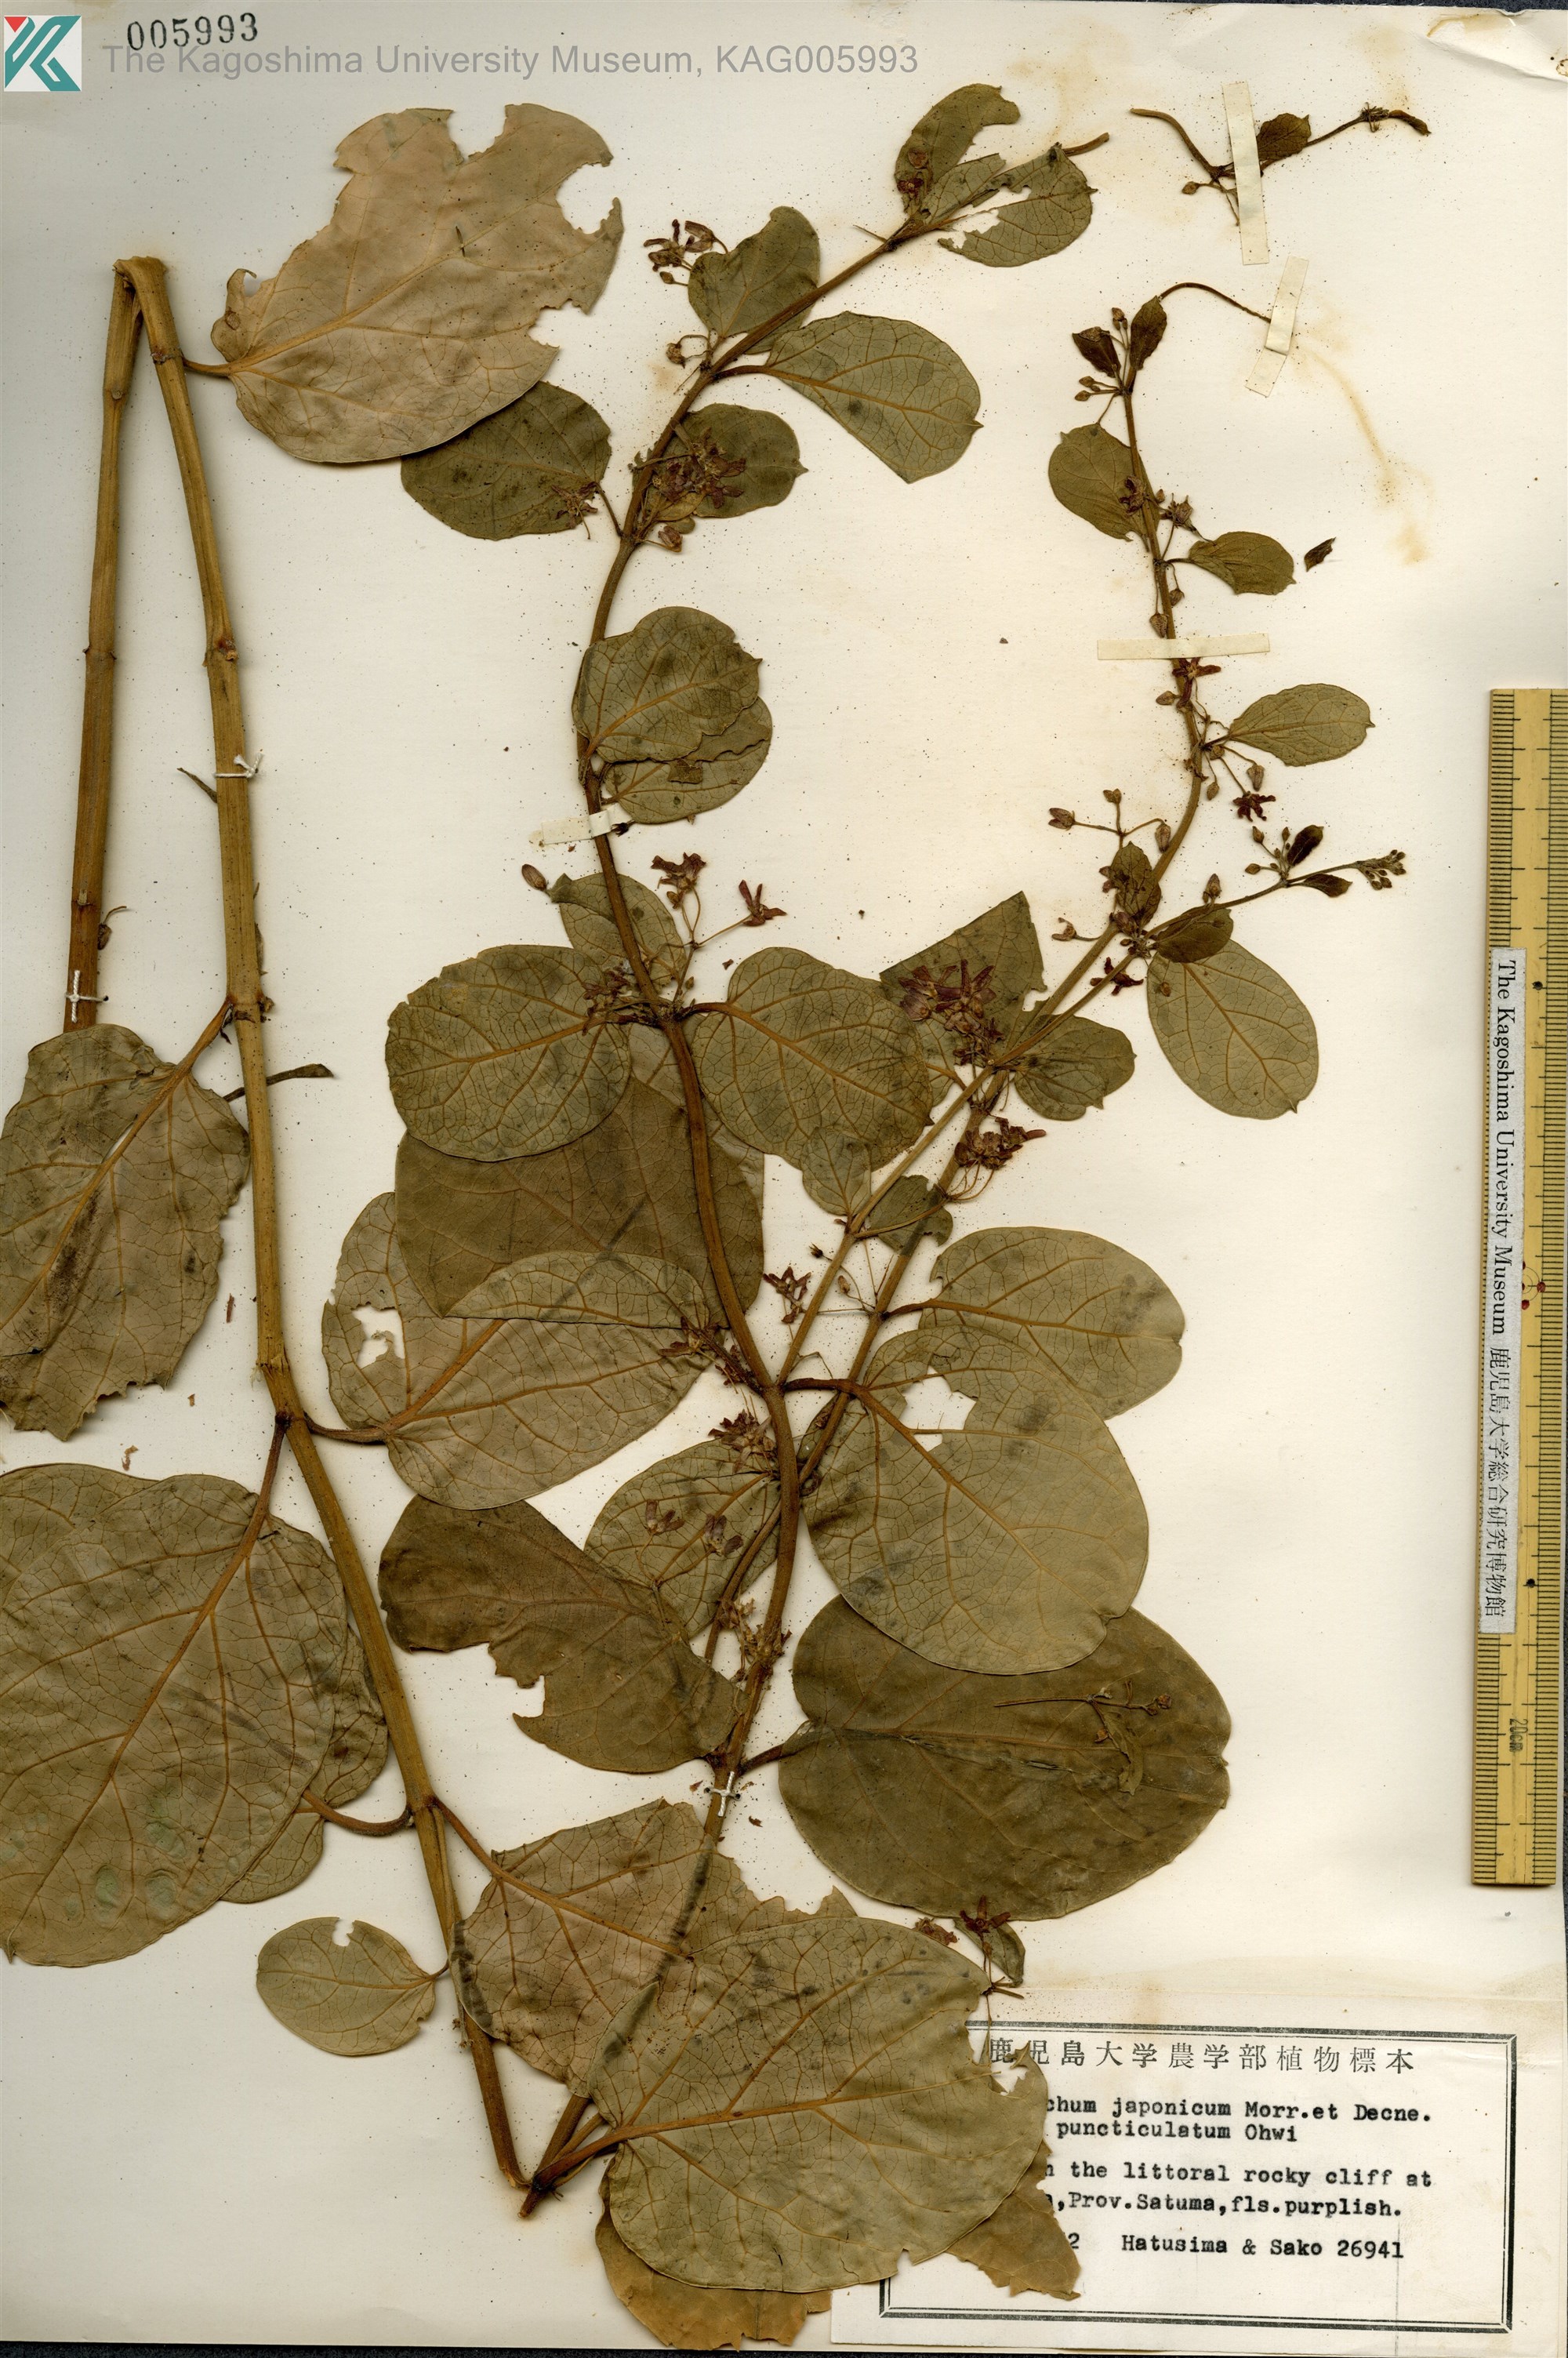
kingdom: Plantae
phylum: Tracheophyta
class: Magnoliopsida
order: Gentianales
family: Apocynaceae
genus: Vincetoxicum
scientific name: Vincetoxicum japonicum
